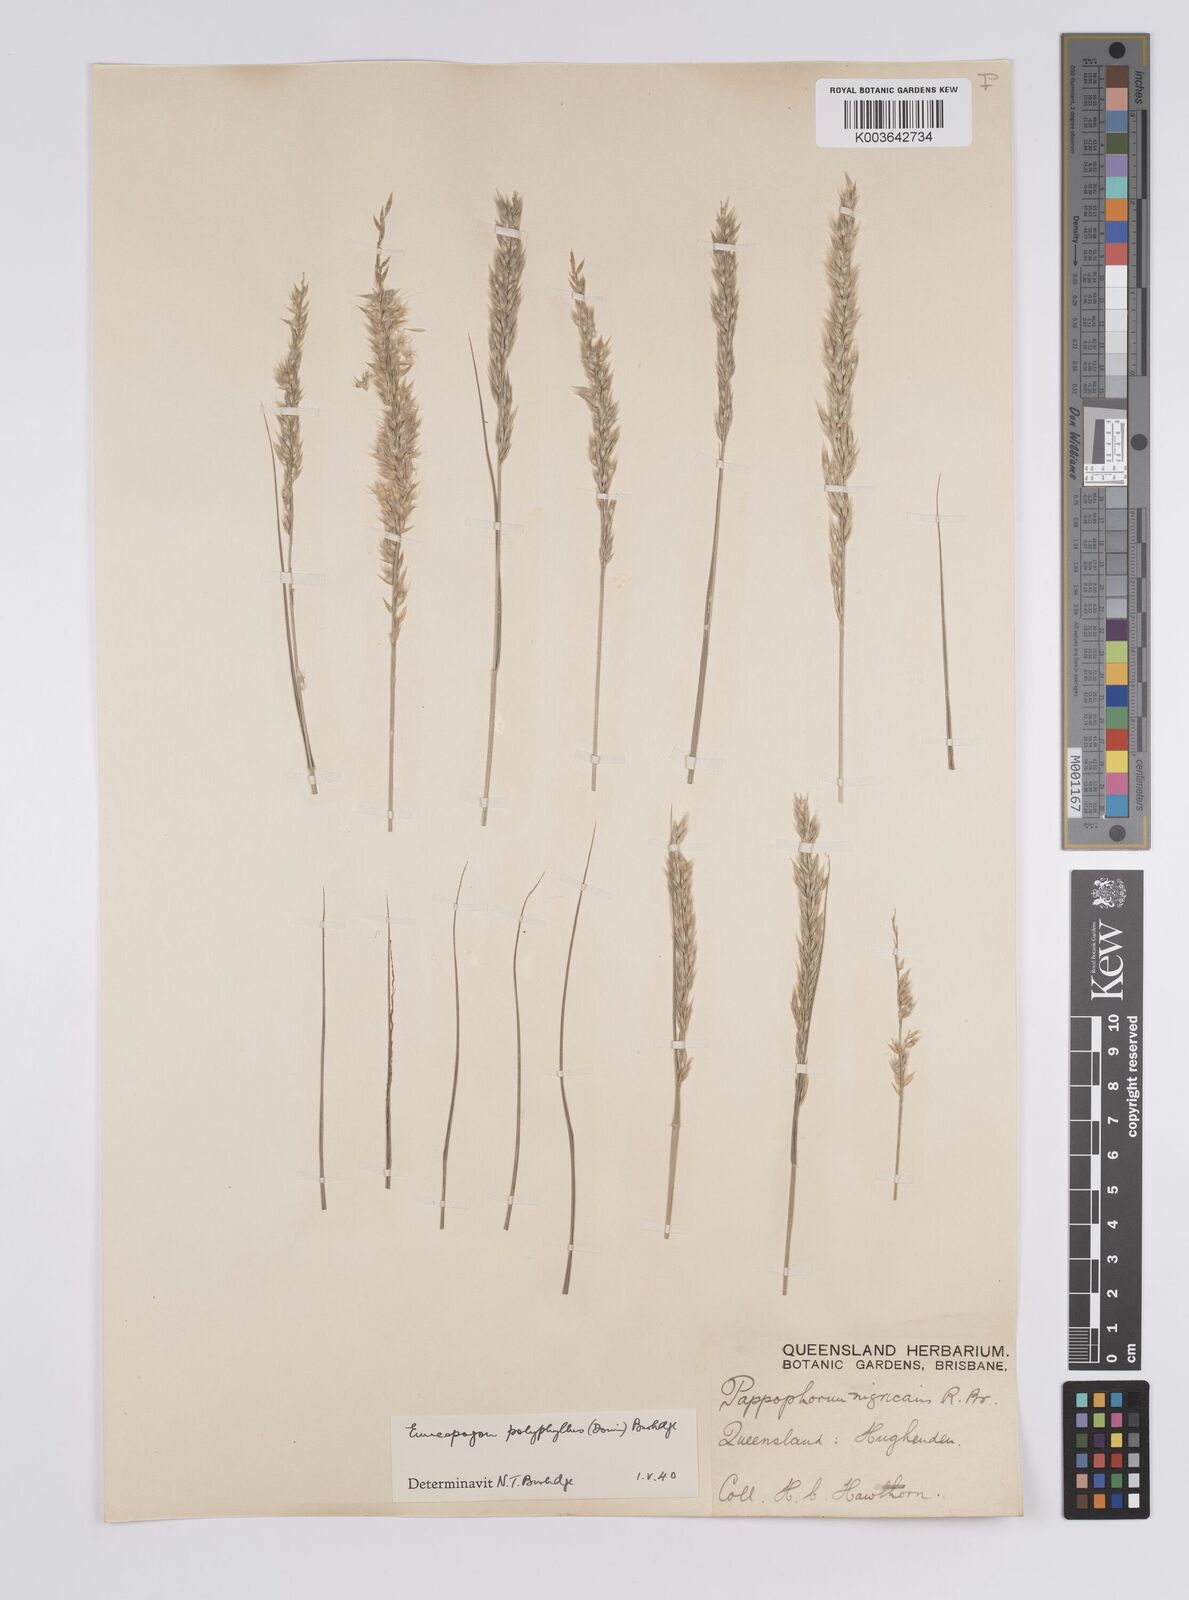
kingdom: Plantae
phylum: Tracheophyta
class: Liliopsida
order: Poales
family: Poaceae
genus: Enneapogon
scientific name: Enneapogon polyphyllus
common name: Leafy nineawn
